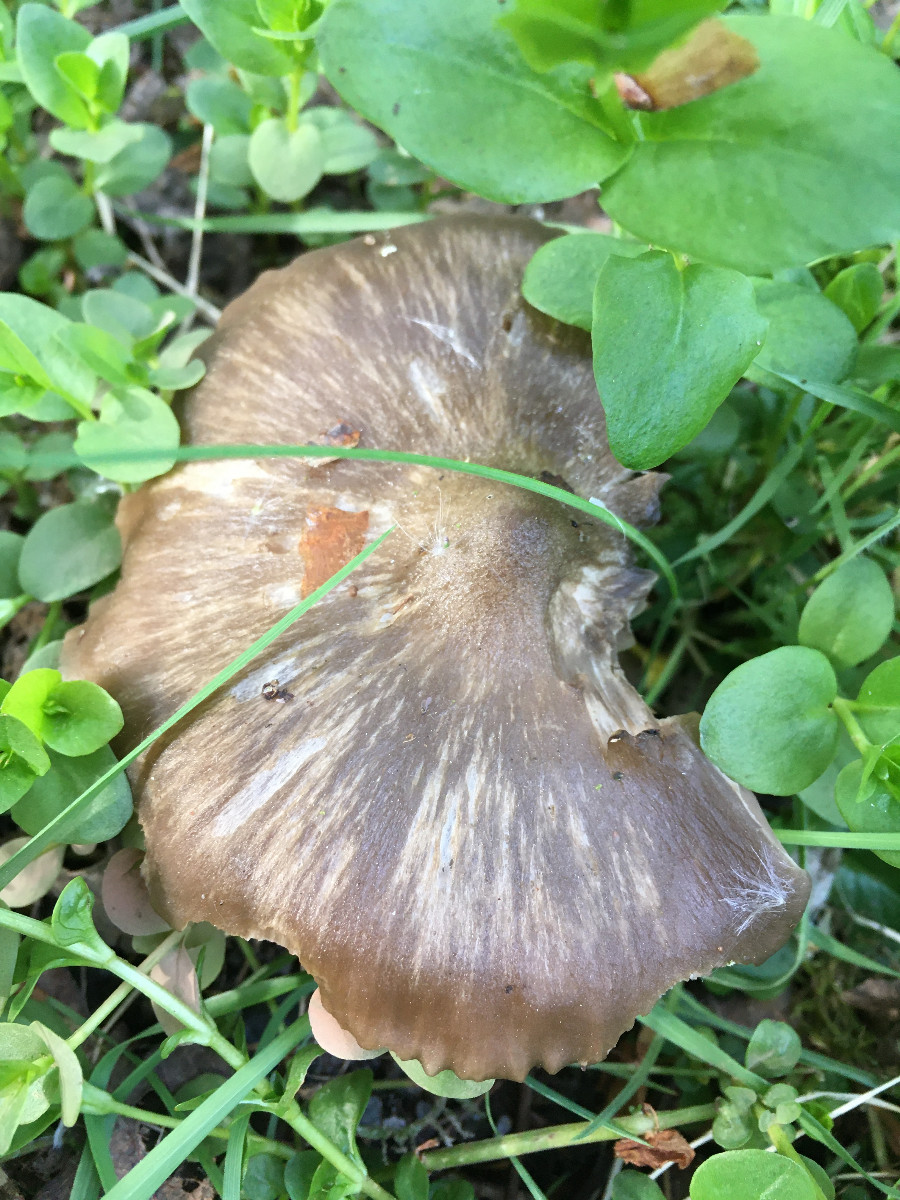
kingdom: Fungi
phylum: Basidiomycota
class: Agaricomycetes
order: Agaricales
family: Entolomataceae
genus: Entoloma
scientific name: Entoloma clypeatum
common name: flammet rødblad
